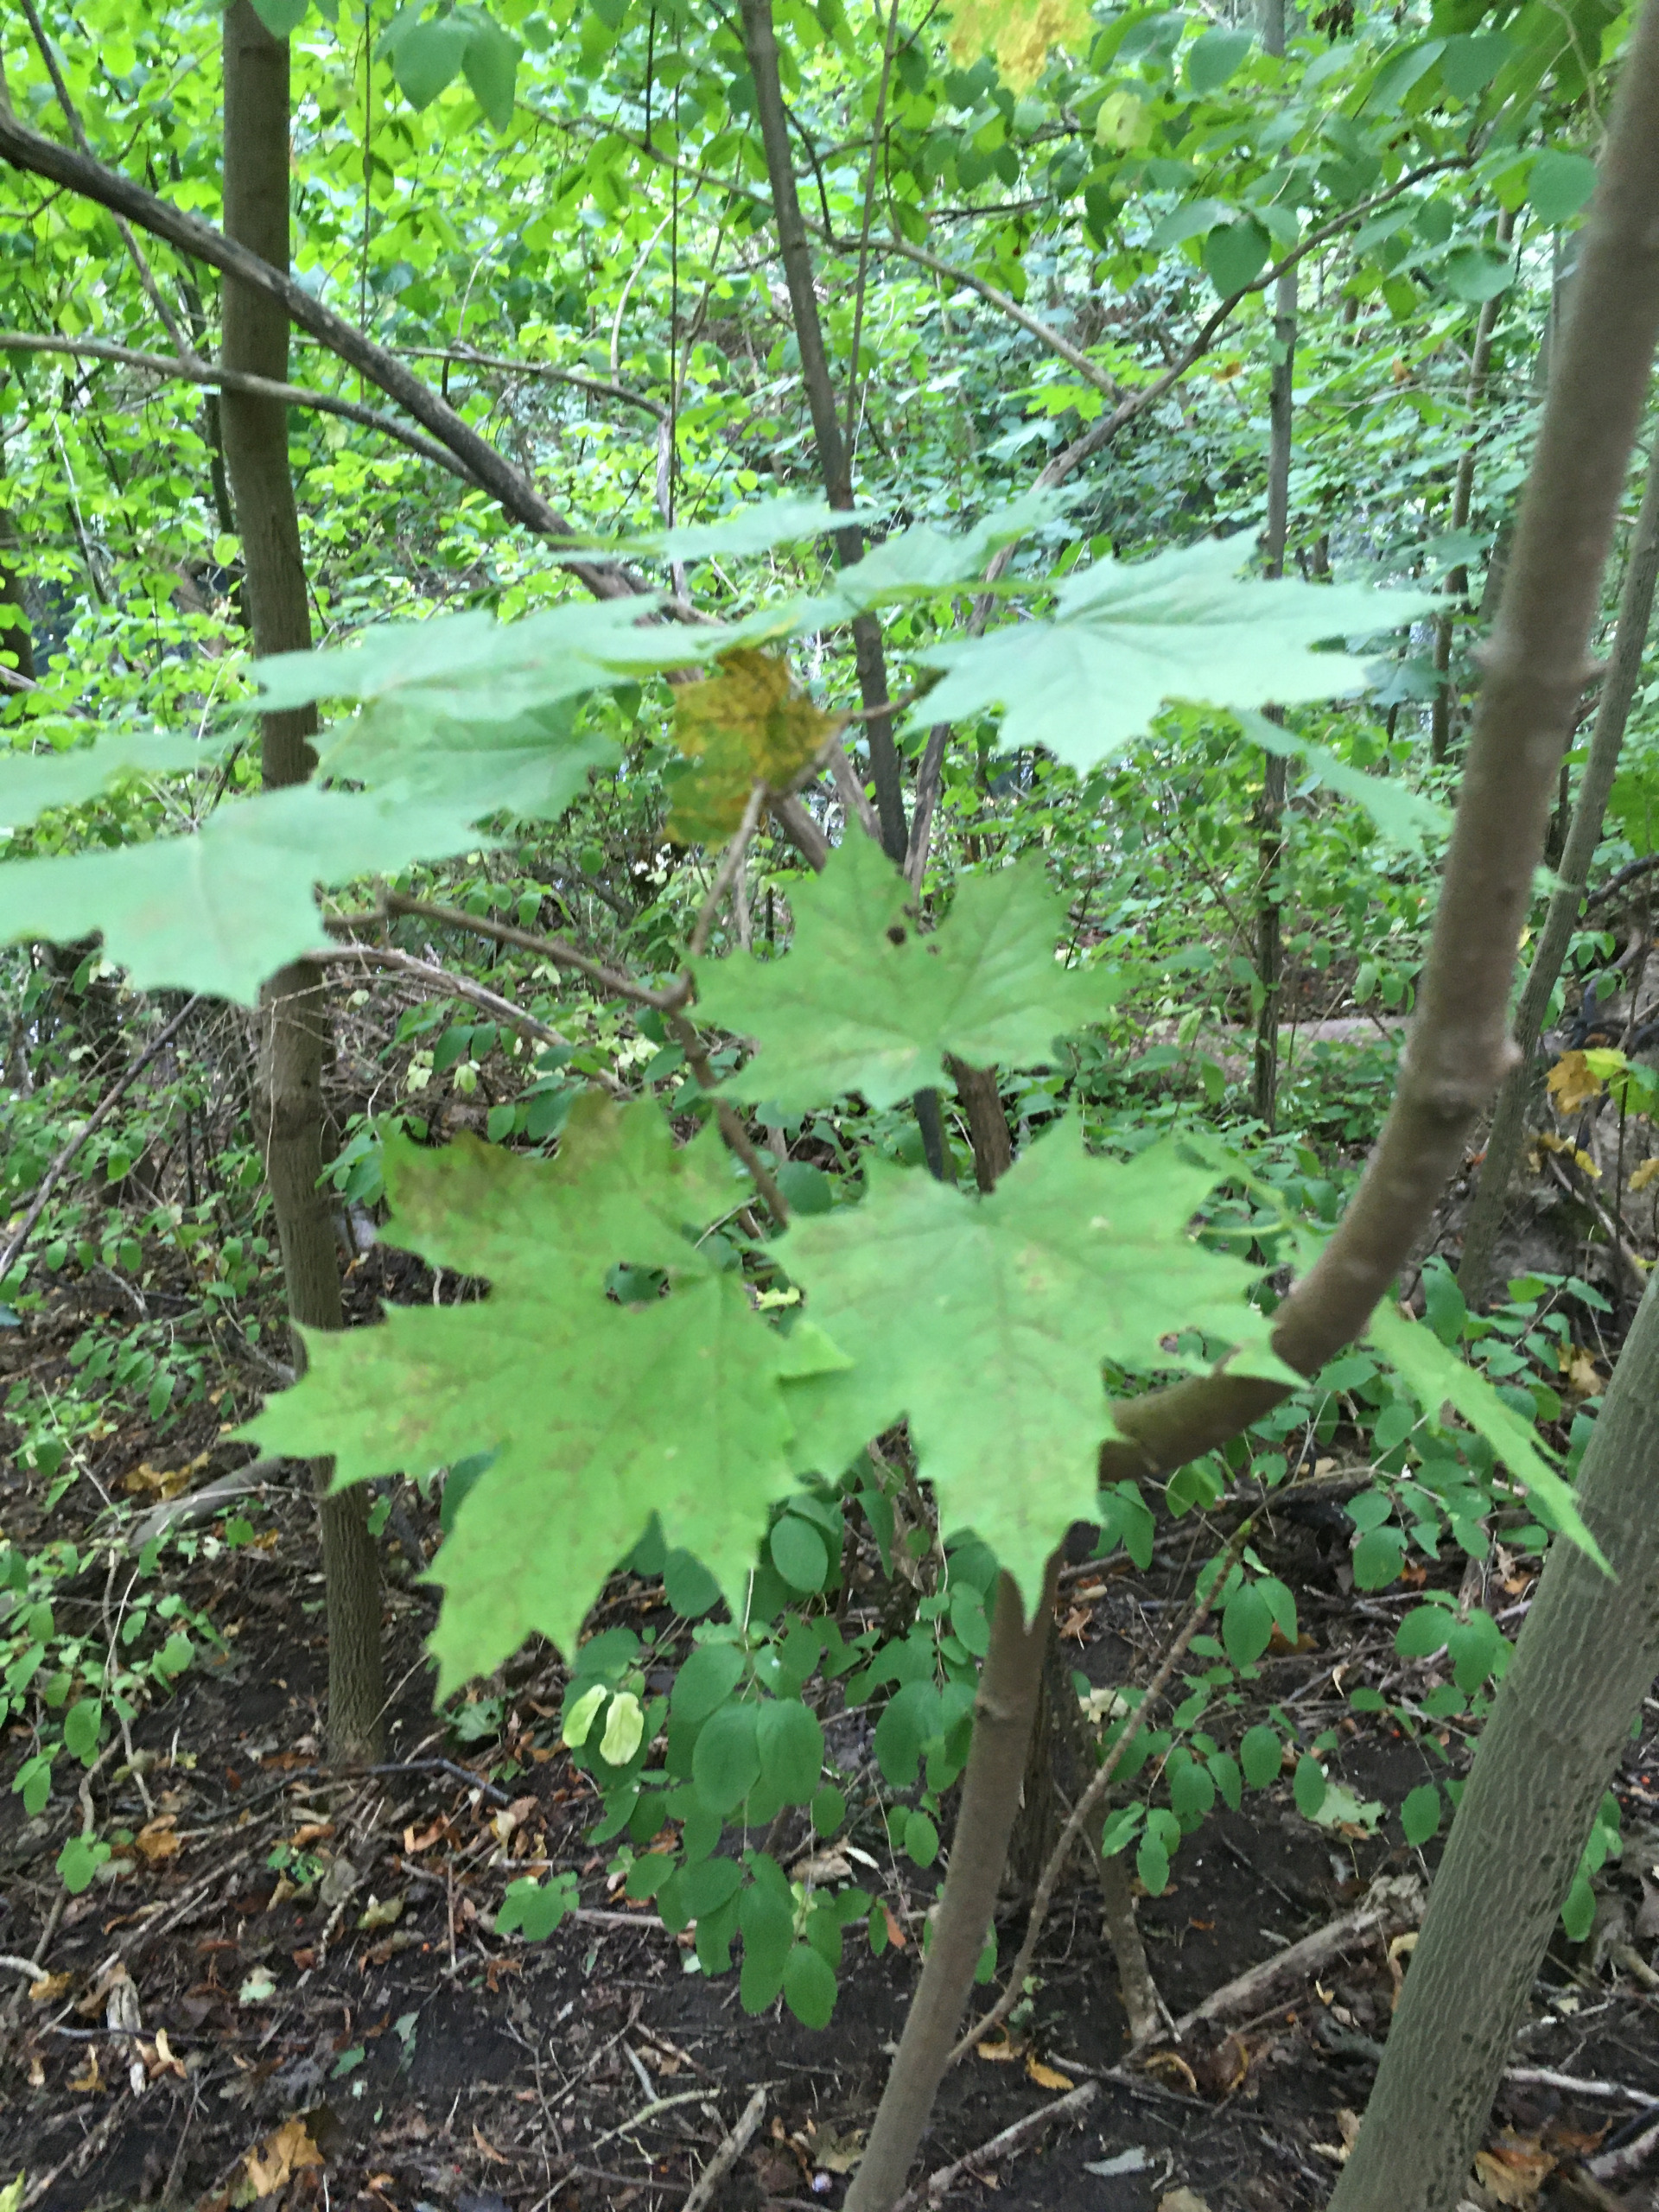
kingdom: Plantae
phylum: Tracheophyta
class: Magnoliopsida
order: Sapindales
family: Sapindaceae
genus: Acer
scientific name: Acer platanoides
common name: Spids-løn
